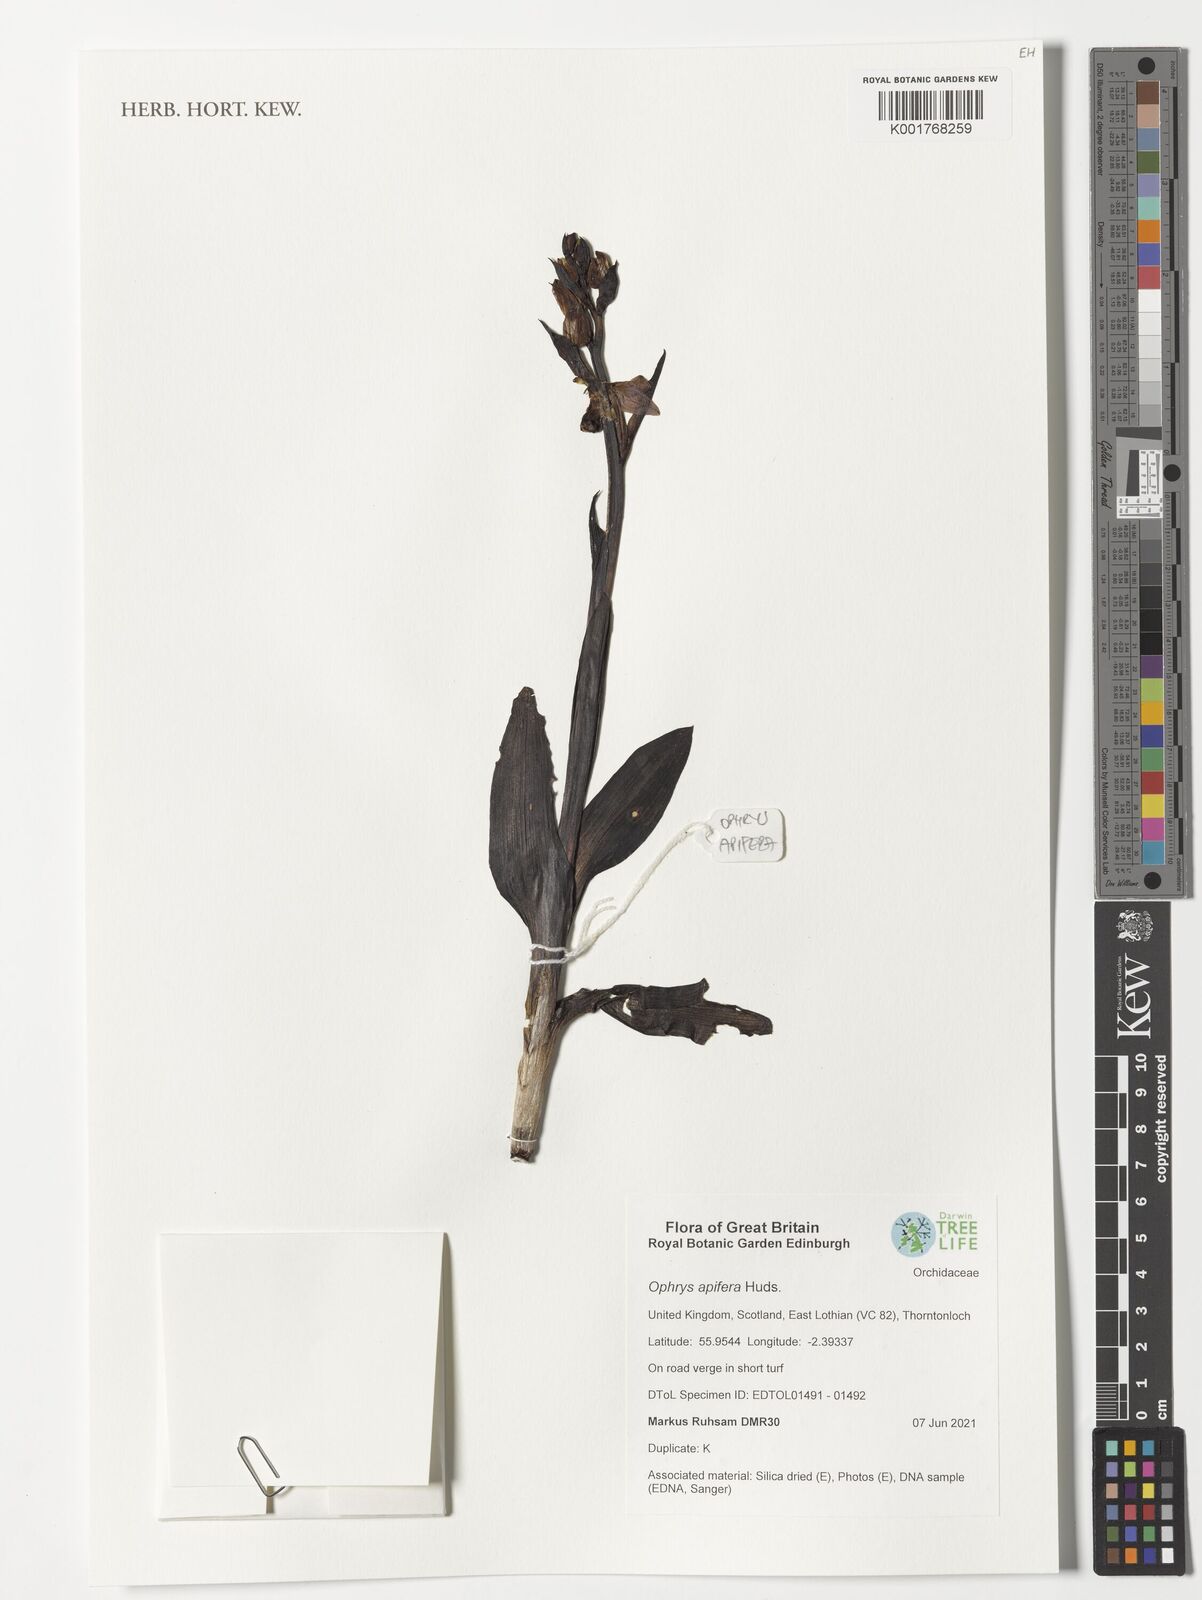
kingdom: Plantae
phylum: Tracheophyta
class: Liliopsida
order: Asparagales
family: Orchidaceae
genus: Ophrys
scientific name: Ophrys apifera
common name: Bee orchid
